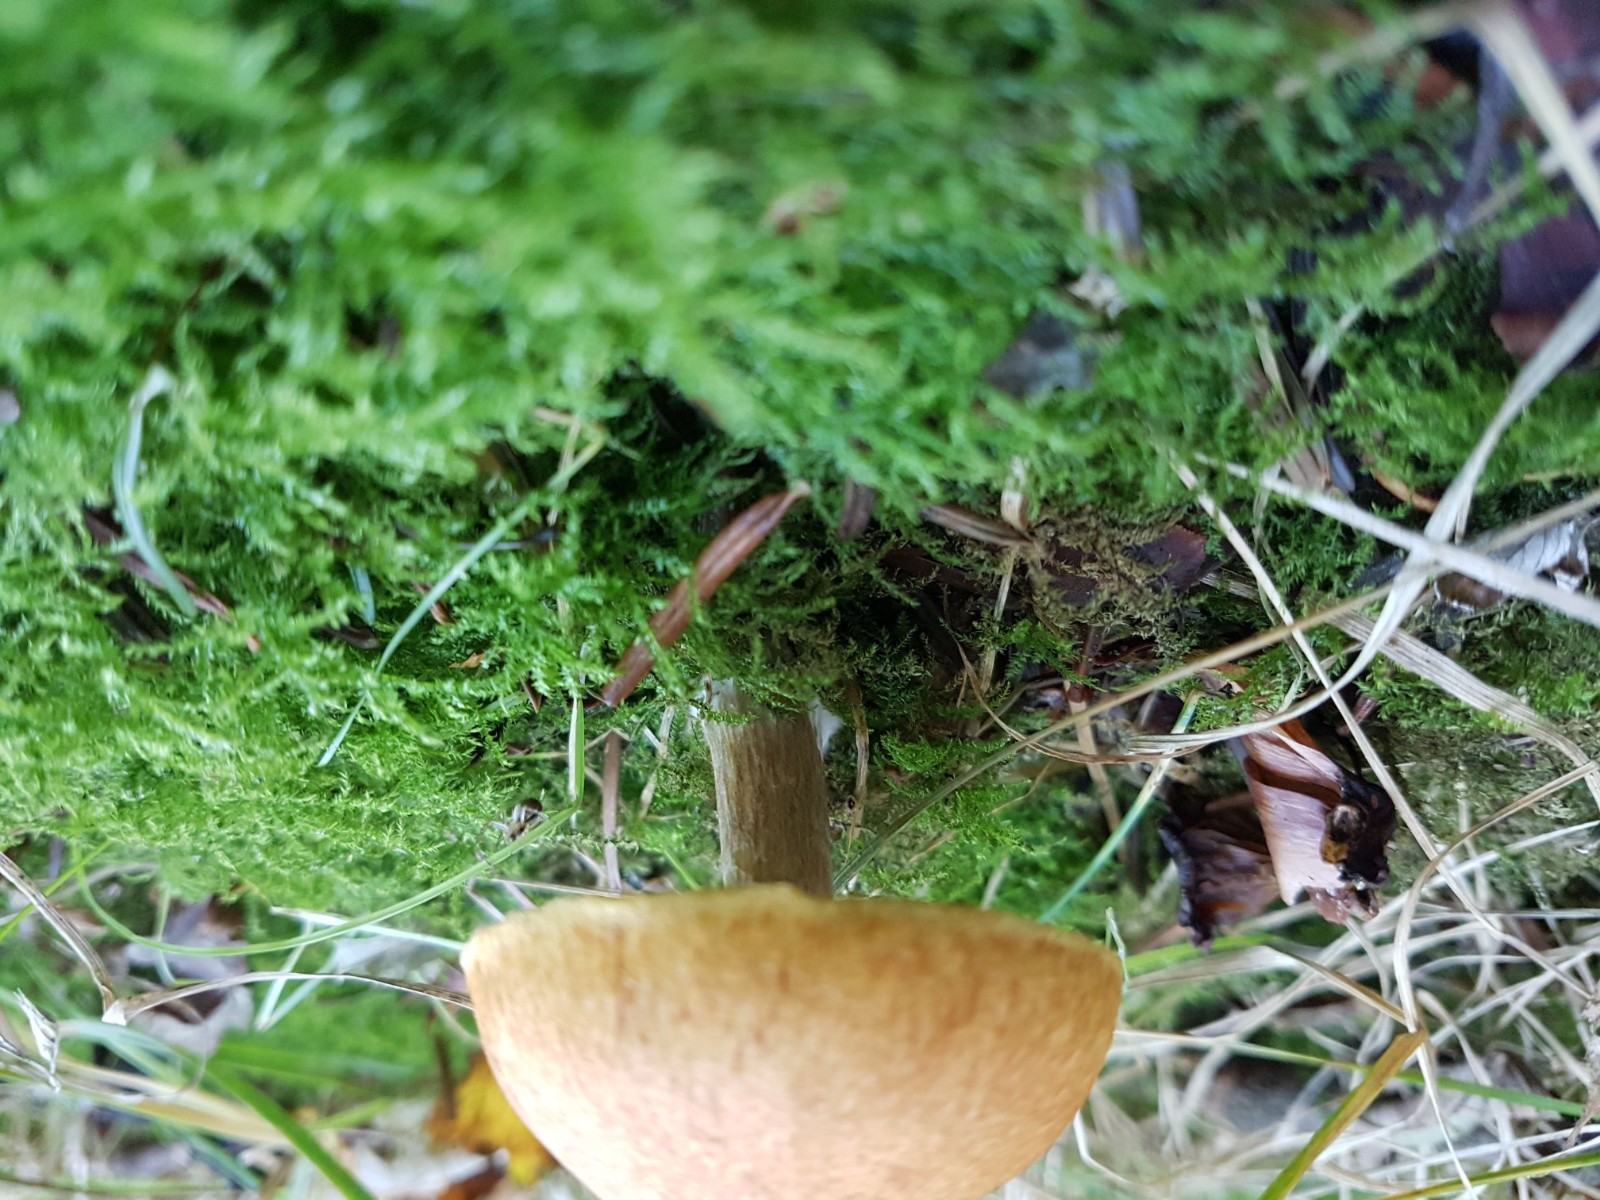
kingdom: Fungi
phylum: Basidiomycota
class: Agaricomycetes
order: Agaricales
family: Hymenogastraceae
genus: Gymnopilus
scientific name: Gymnopilus
